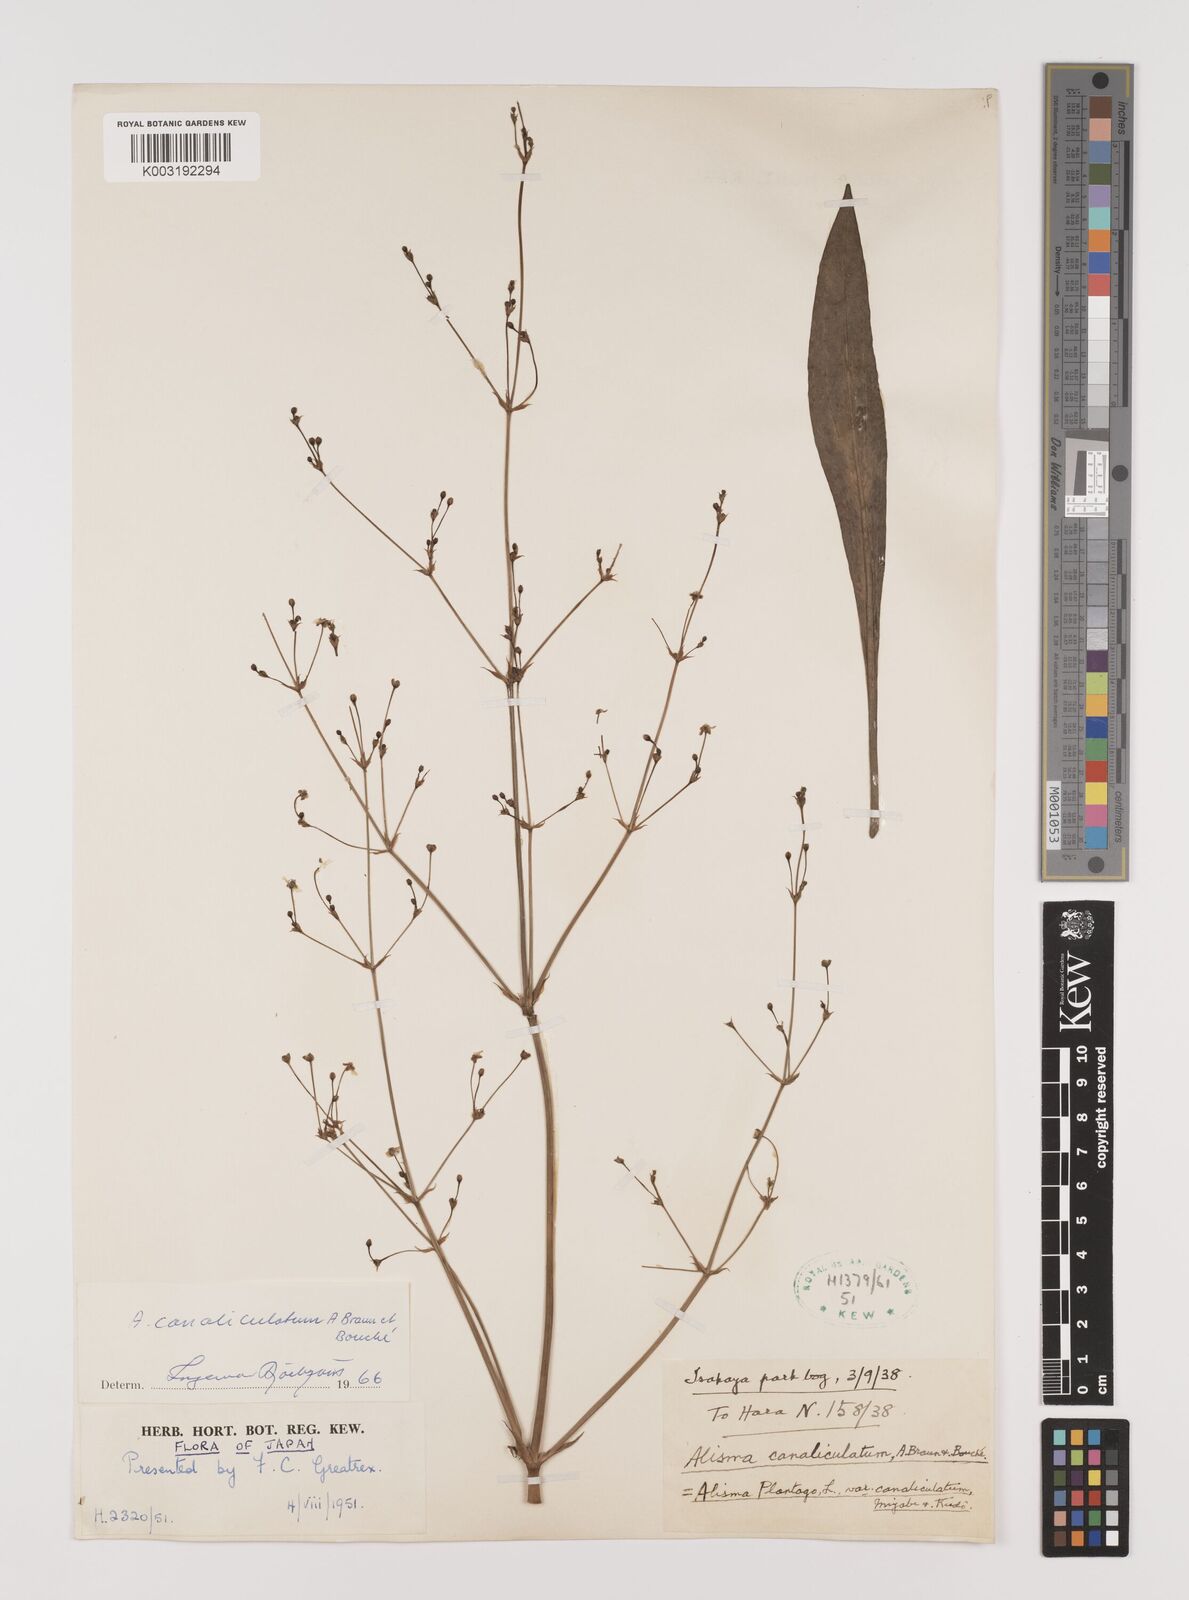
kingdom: Plantae
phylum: Tracheophyta
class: Liliopsida
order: Alismatales
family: Alismataceae
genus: Alisma
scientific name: Alisma plantago-aquatica
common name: Water-plantain
